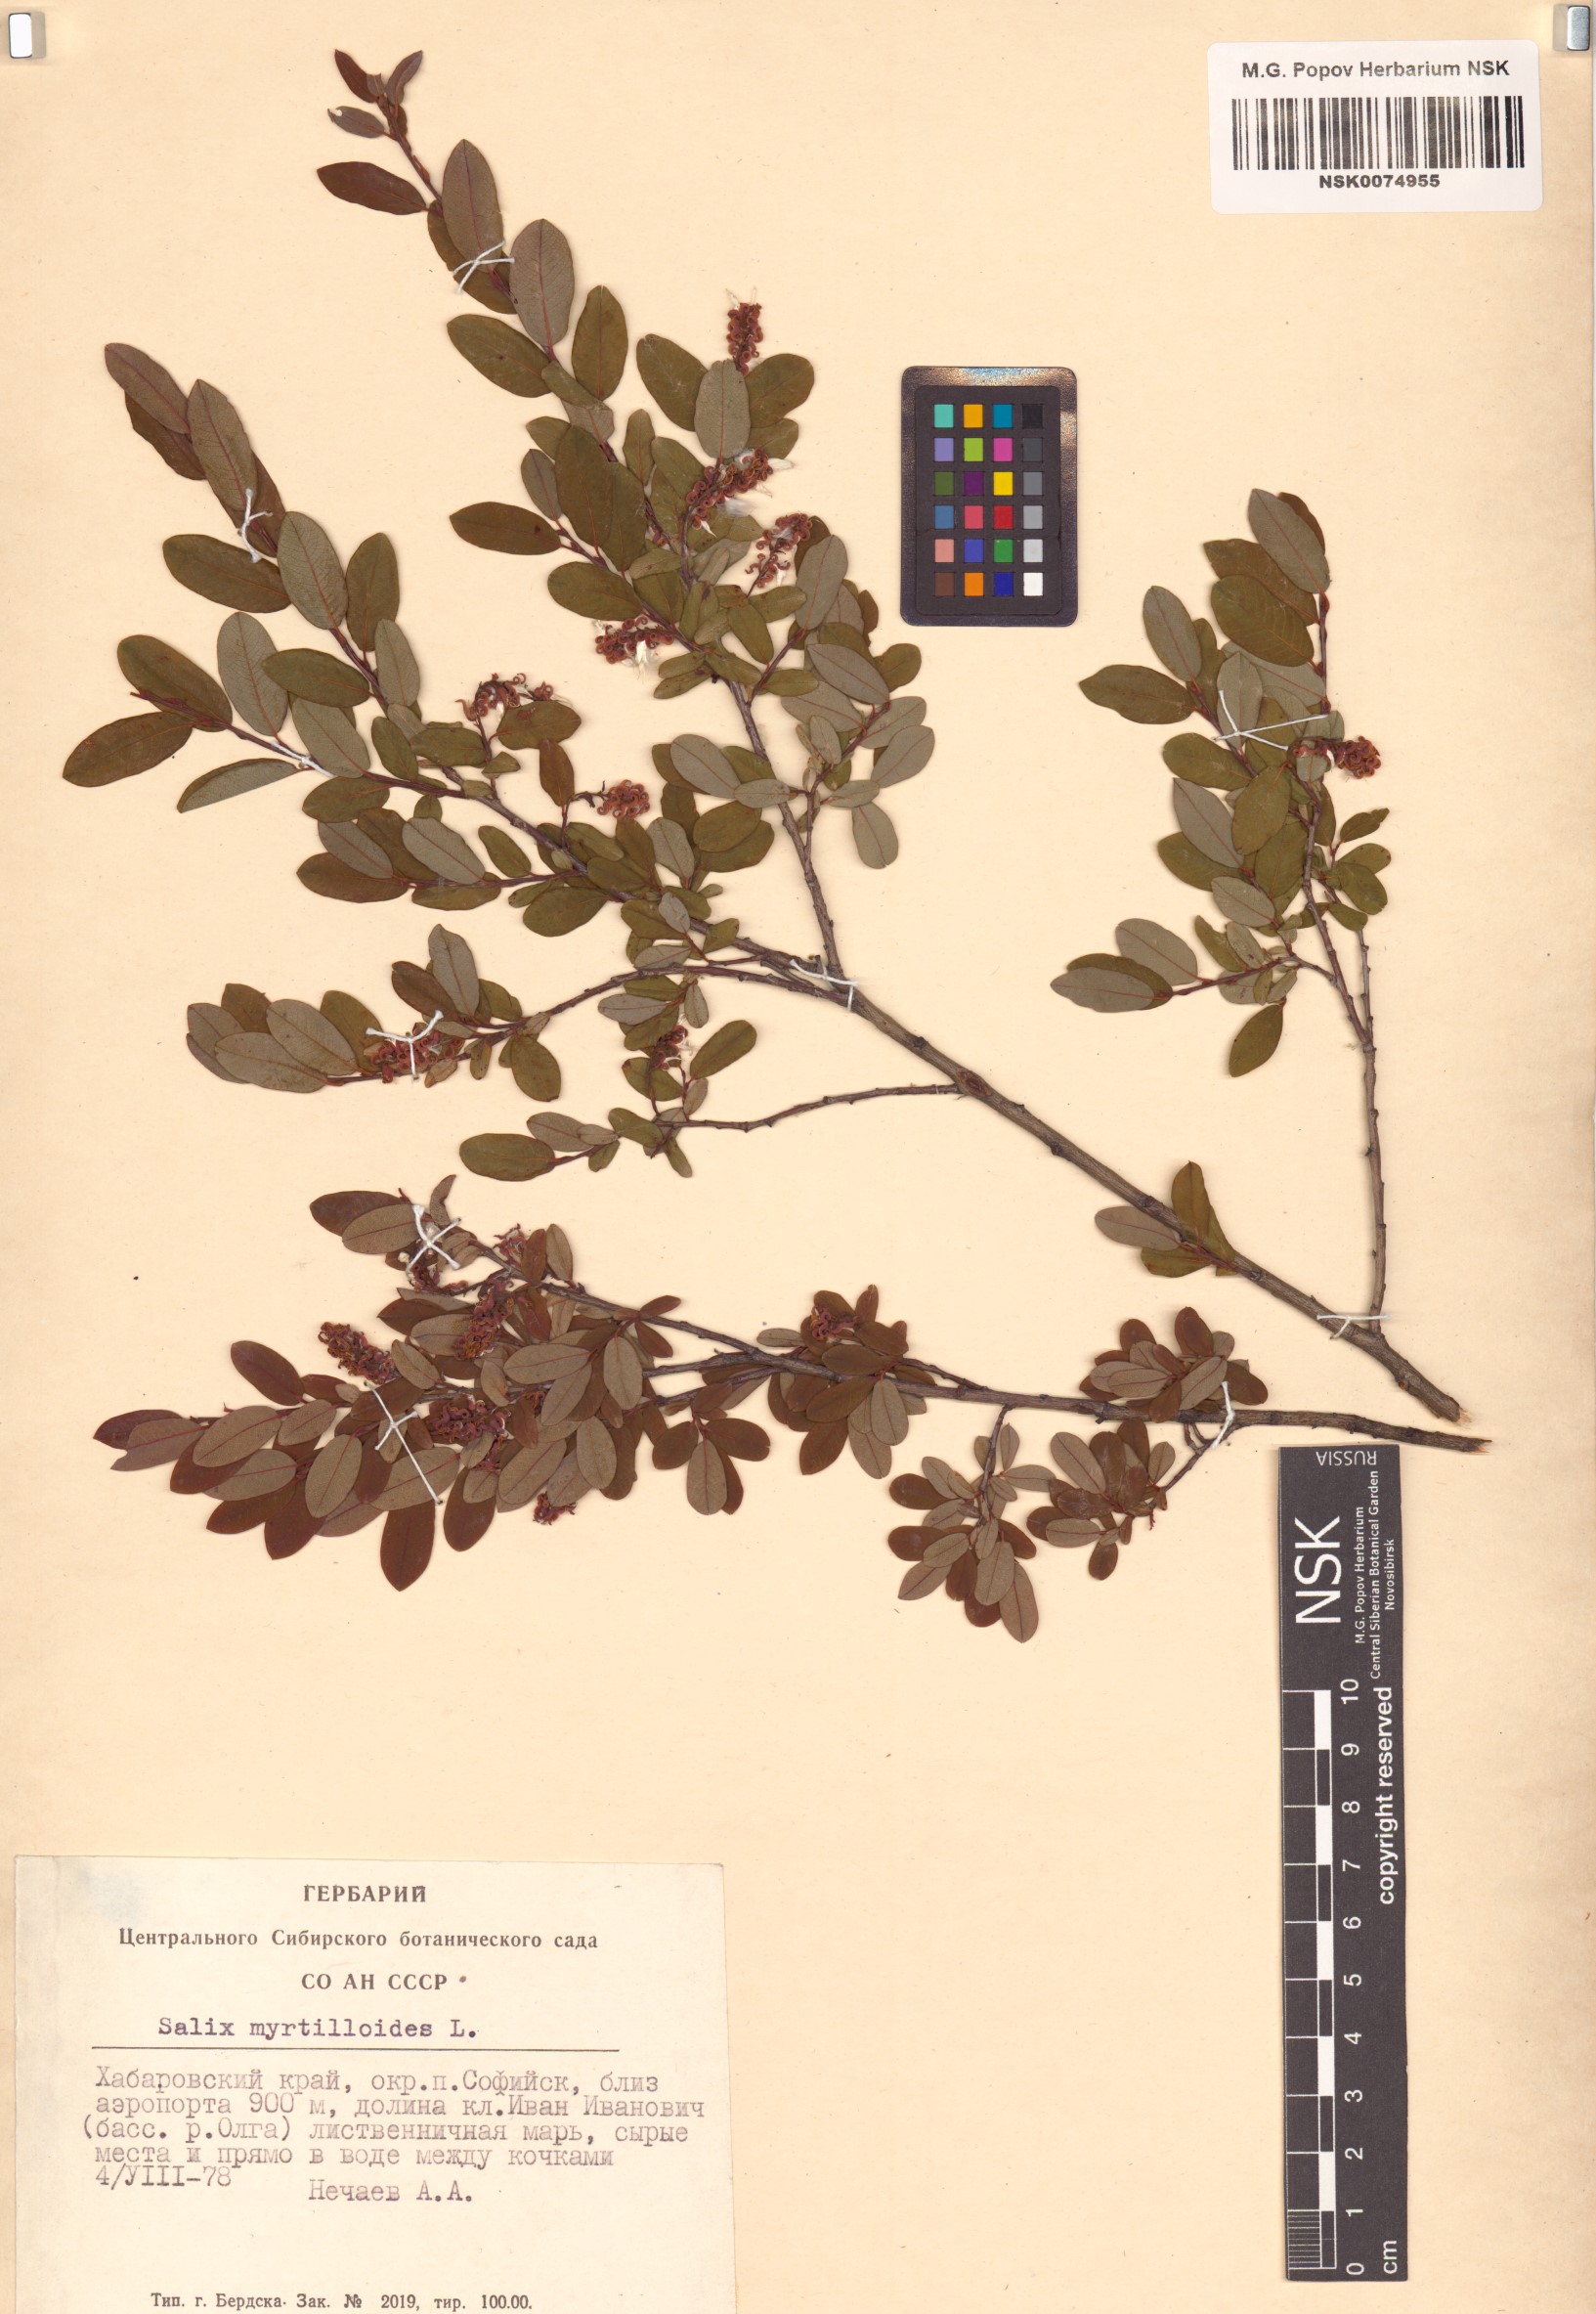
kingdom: Plantae
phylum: Tracheophyta
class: Magnoliopsida
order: Malpighiales
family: Salicaceae
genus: Salix
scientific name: Salix myrtilloides
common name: Myrtle-leaved willow
